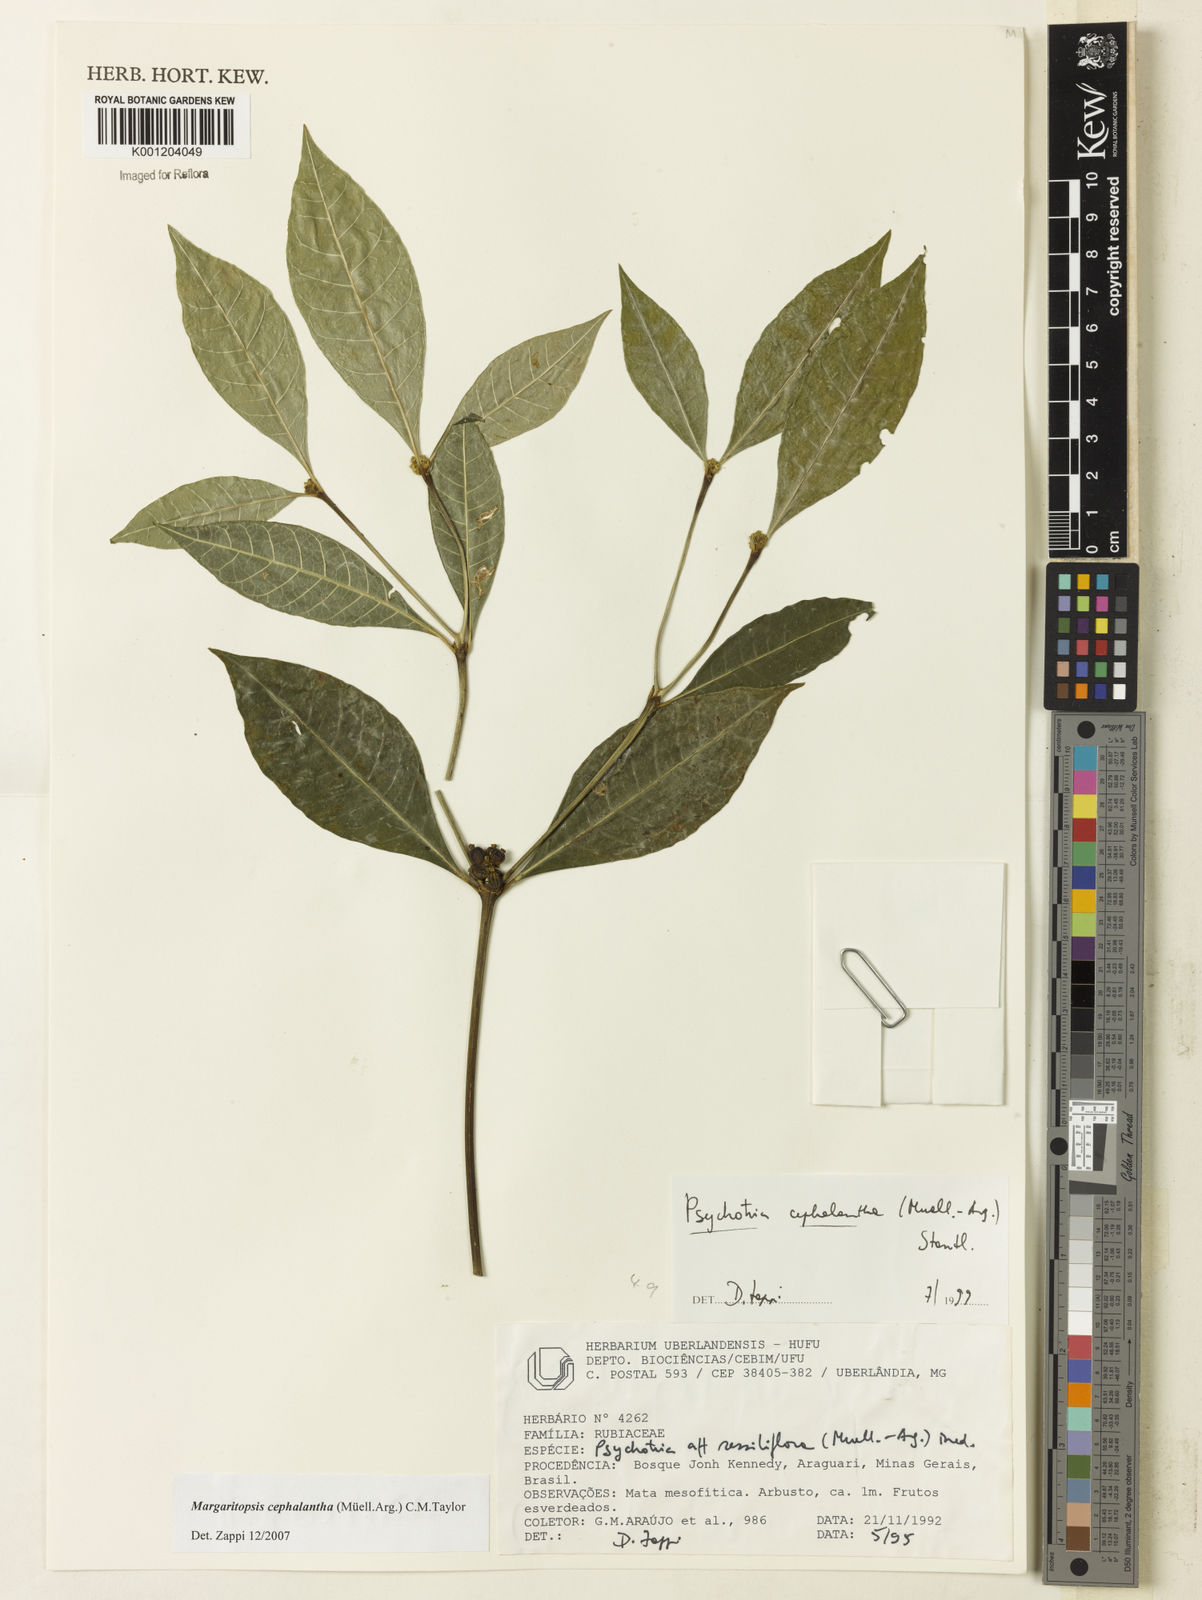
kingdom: Plantae
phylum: Tracheophyta
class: Magnoliopsida
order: Gentianales
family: Rubiaceae
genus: Eumachia
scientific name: Eumachia
